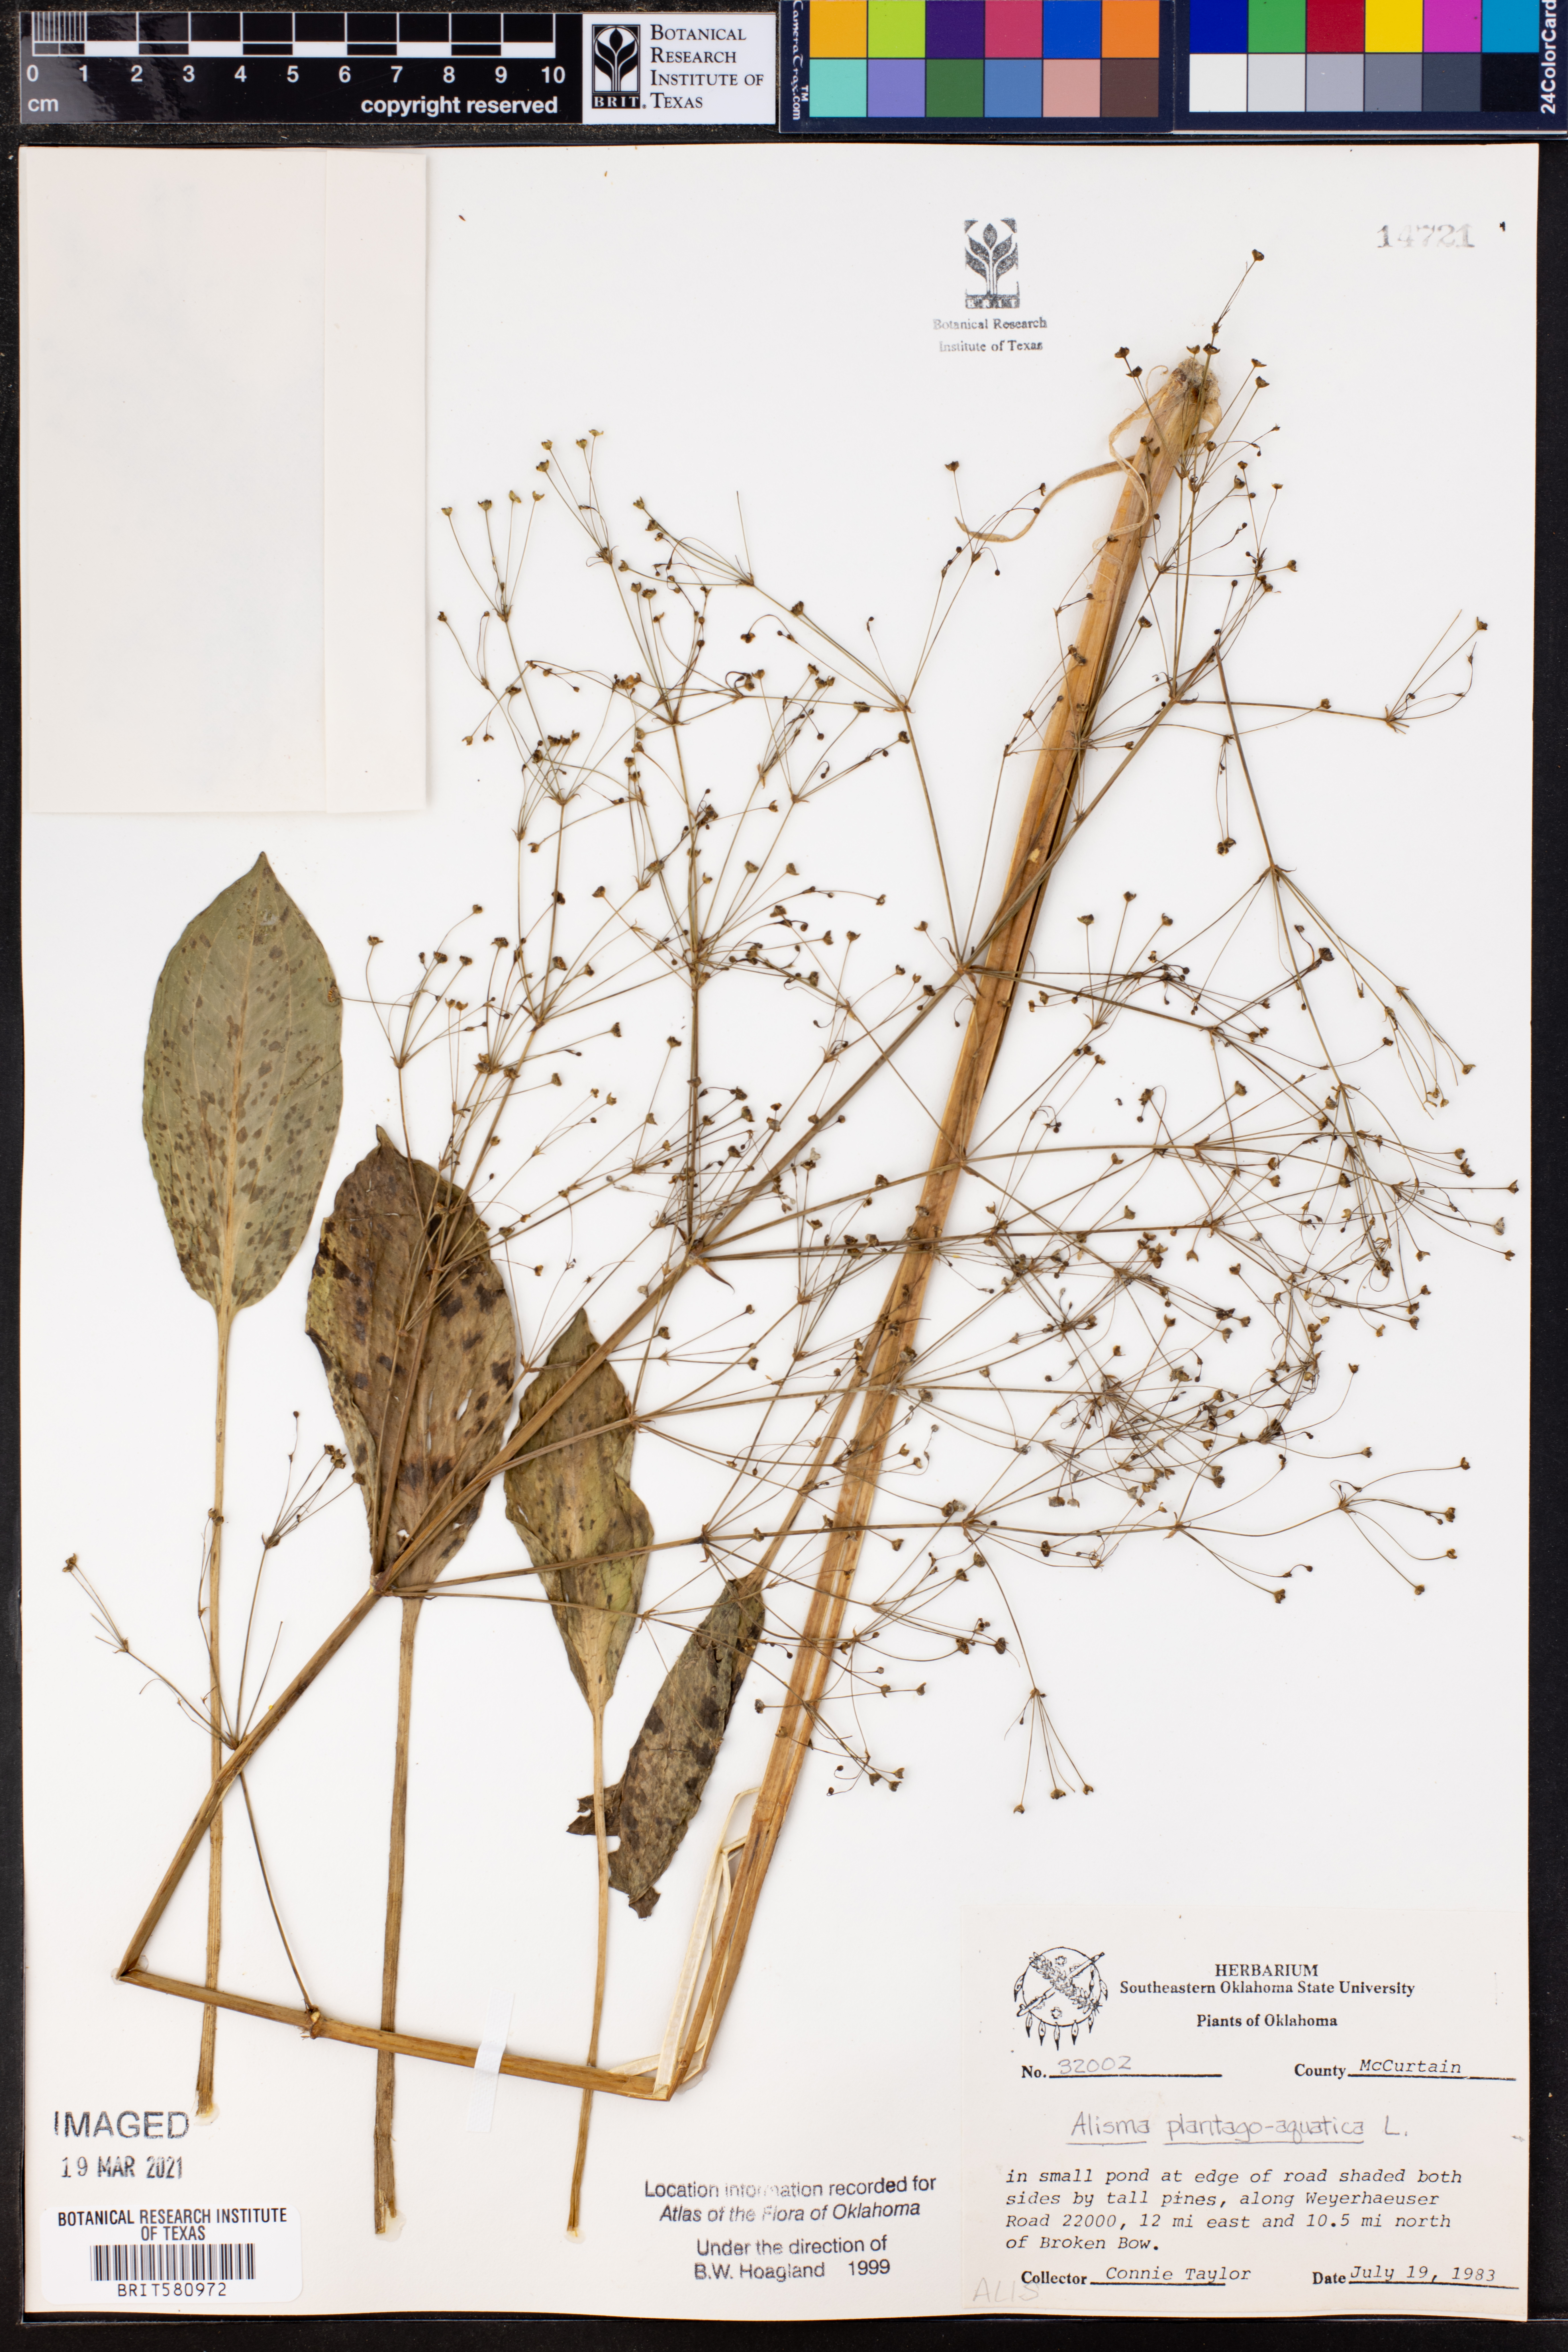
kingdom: Plantae
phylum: Tracheophyta
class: Liliopsida
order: Alismatales
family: Alismataceae
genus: Alisma
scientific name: Alisma plantago-aquatica
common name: Water-plantain
